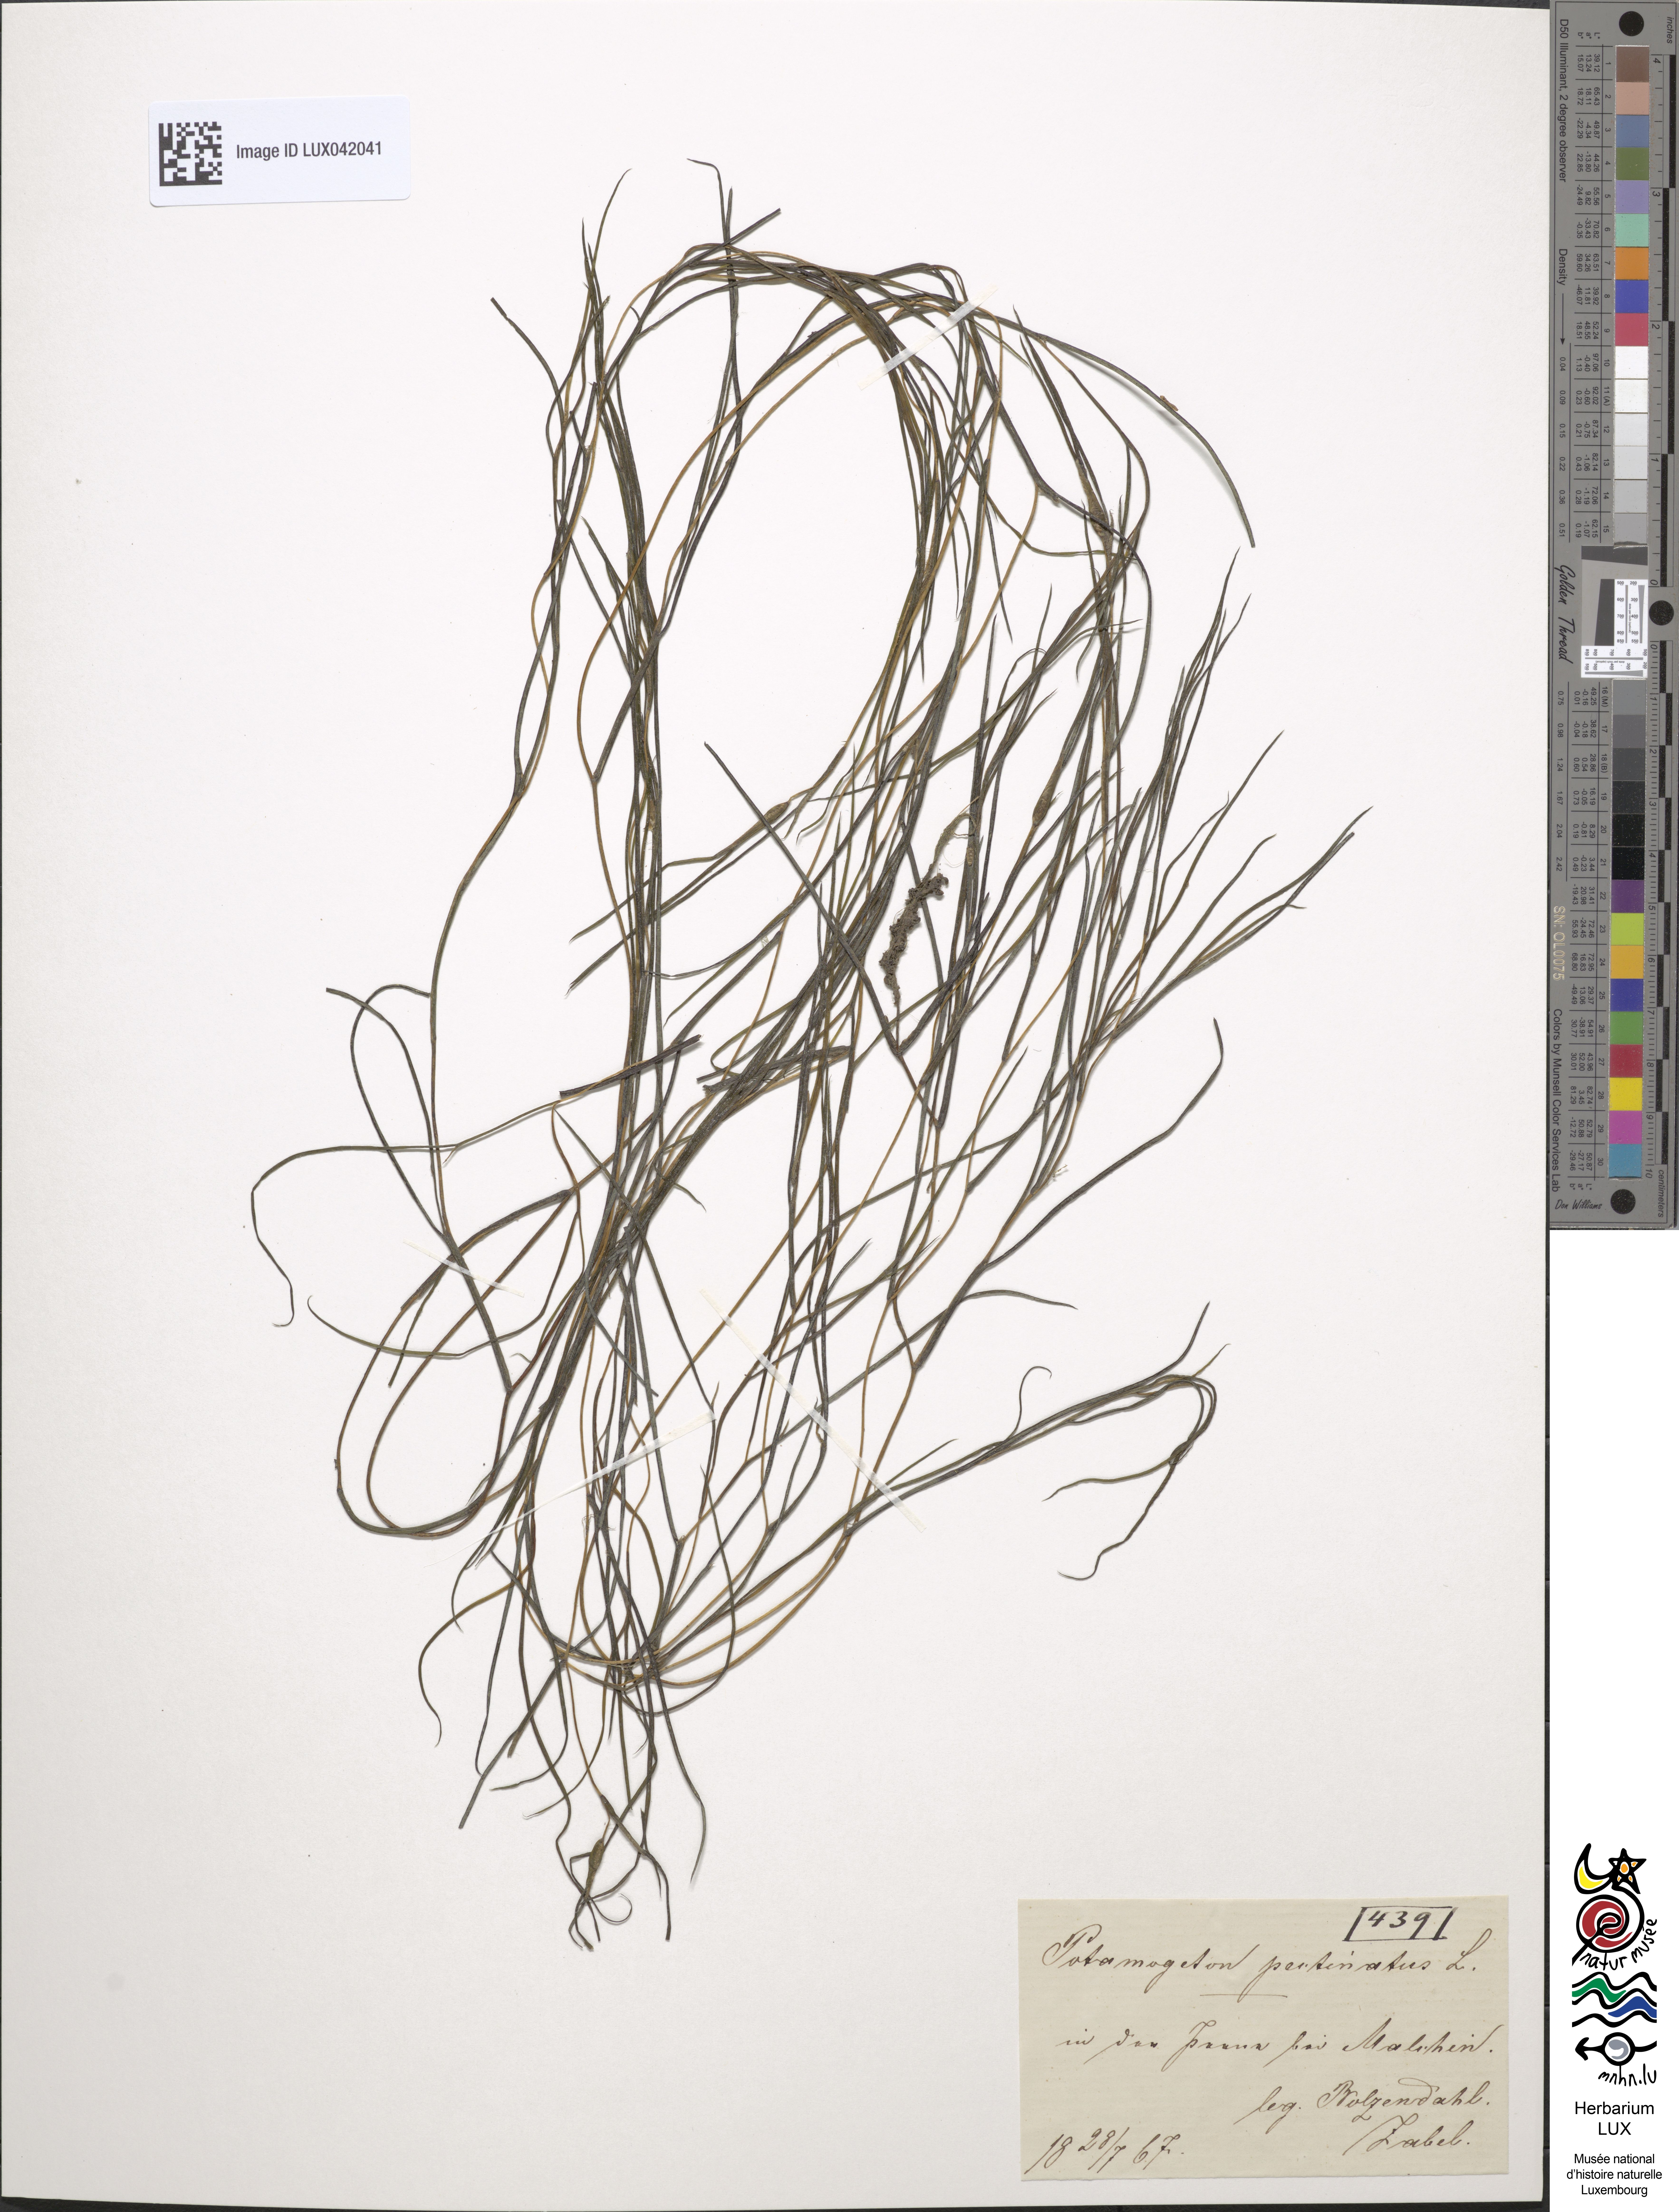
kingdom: Plantae
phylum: Tracheophyta
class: Liliopsida
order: Alismatales
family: Potamogetonaceae
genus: Stuckenia
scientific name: Stuckenia pectinata
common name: Sago pondweed
